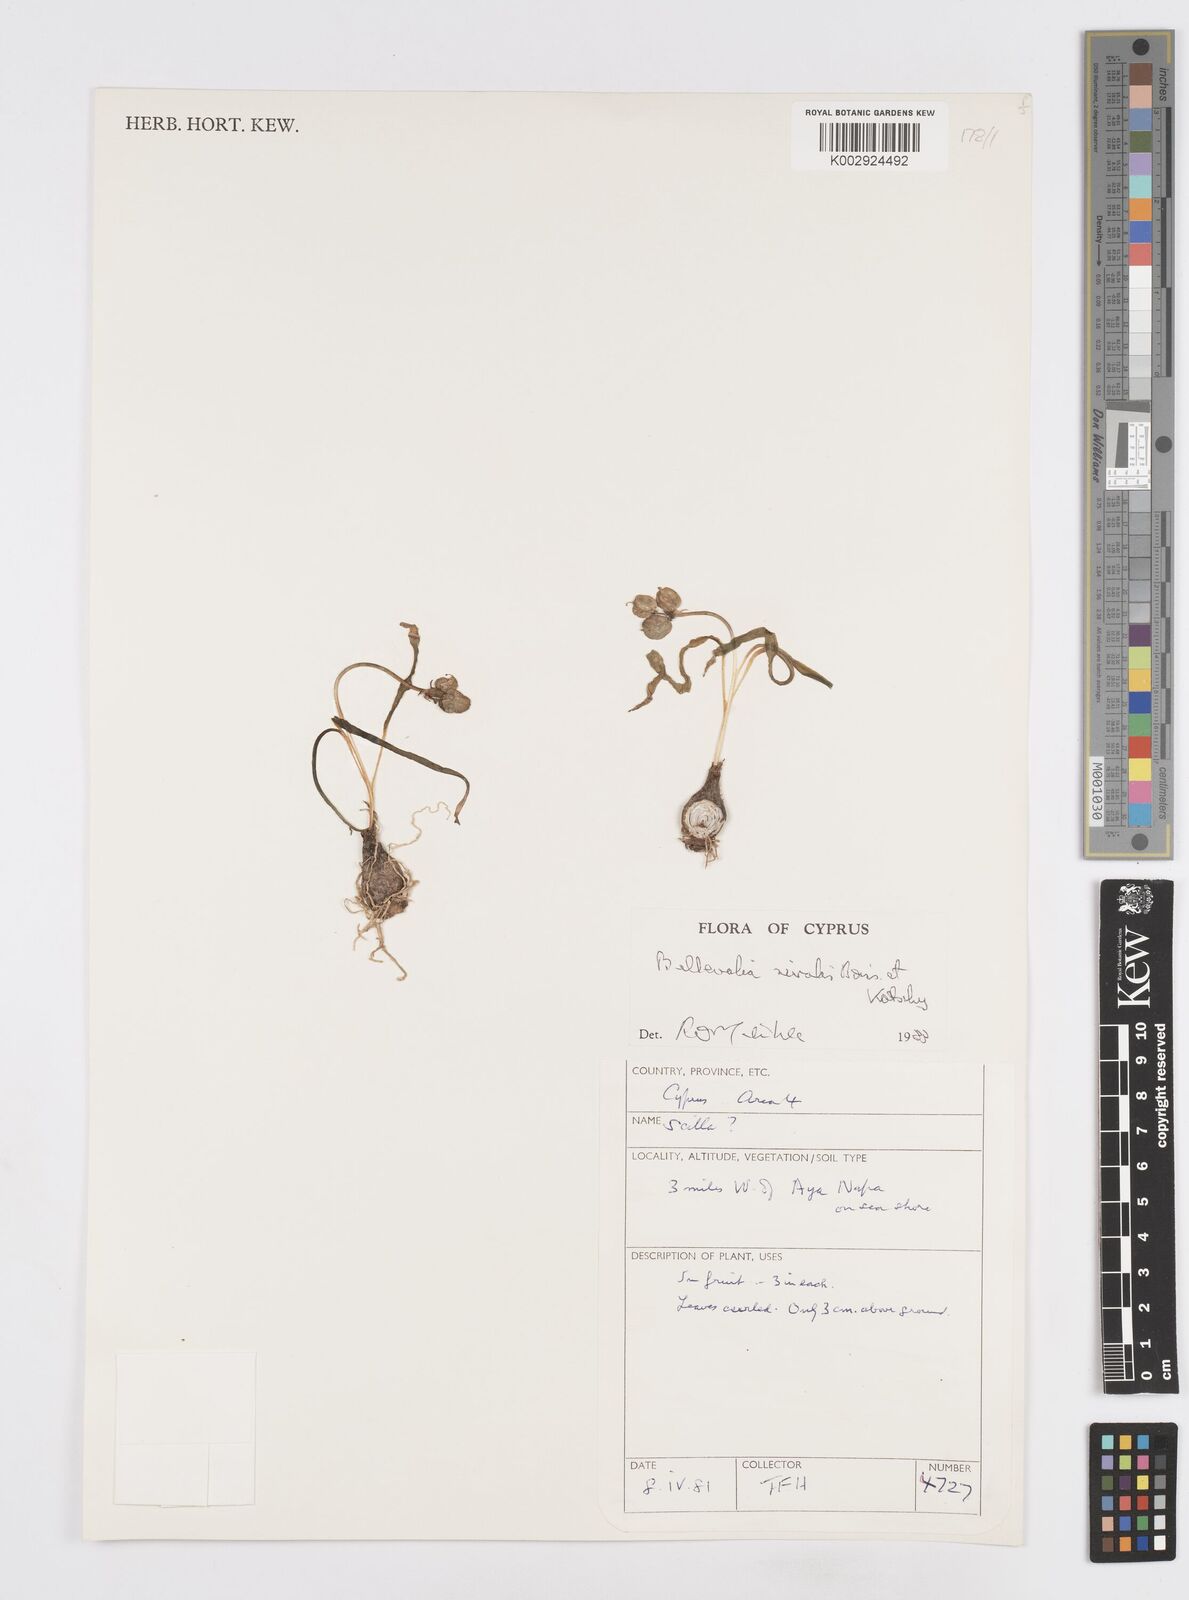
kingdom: Plantae
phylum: Tracheophyta
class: Liliopsida
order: Asparagales
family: Asparagaceae
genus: Bellevalia
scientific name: Bellevalia nivalis
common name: Snow bellevalia
